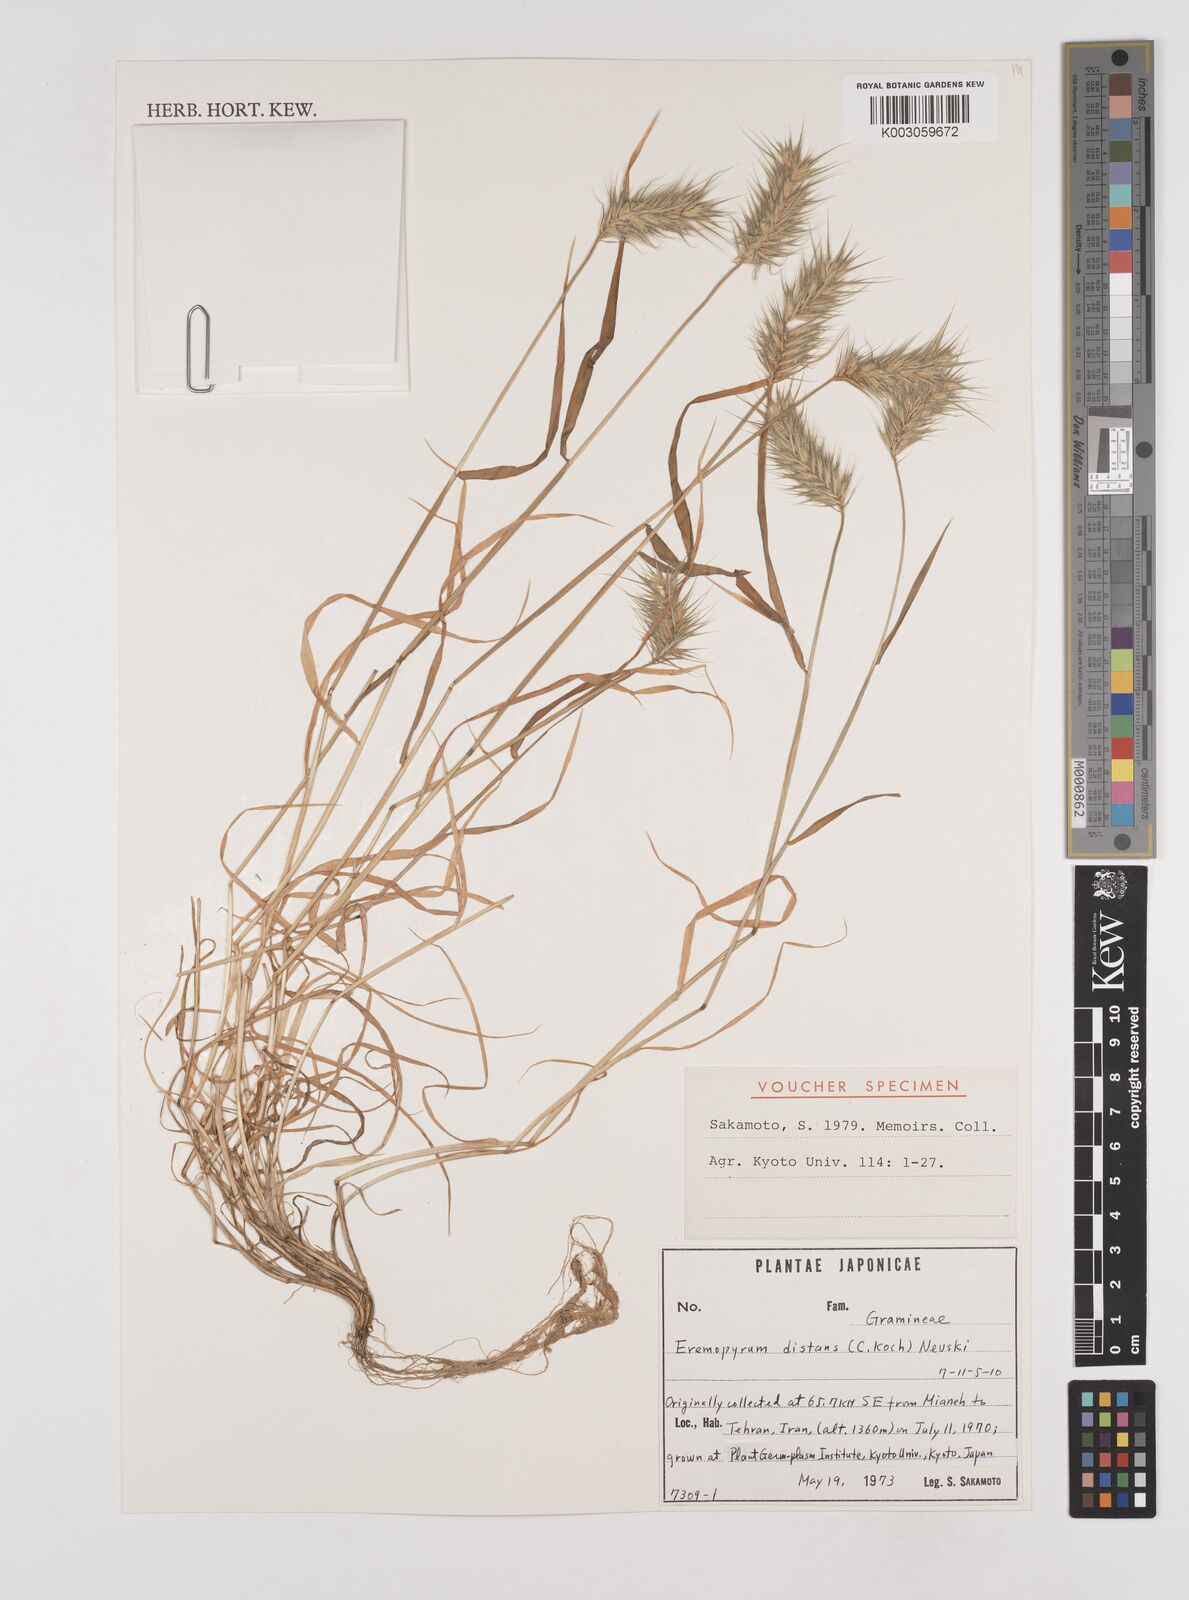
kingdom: Plantae
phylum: Tracheophyta
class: Liliopsida
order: Poales
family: Poaceae
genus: Eremopyrum
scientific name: Eremopyrum distans
